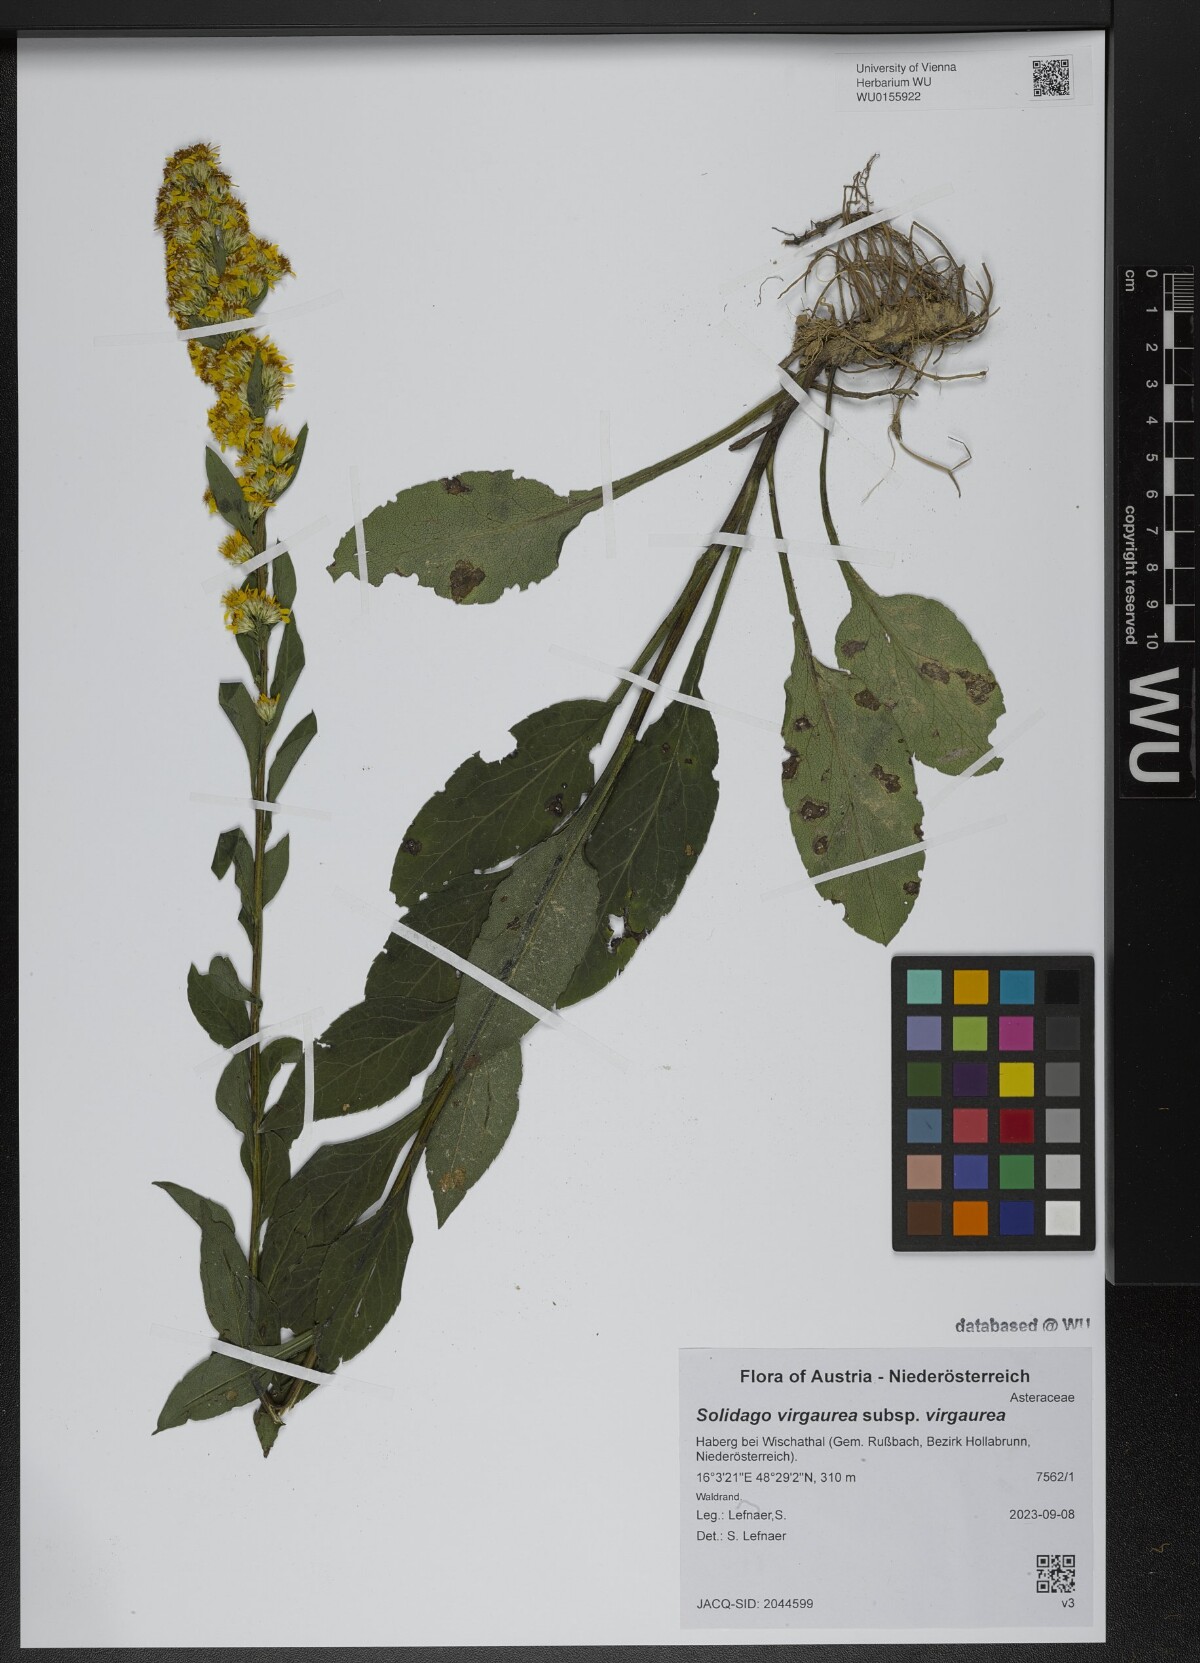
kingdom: Plantae
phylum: Tracheophyta
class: Magnoliopsida
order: Asterales
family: Asteraceae
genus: Solidago
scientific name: Solidago virgaurea
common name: Goldenrod
